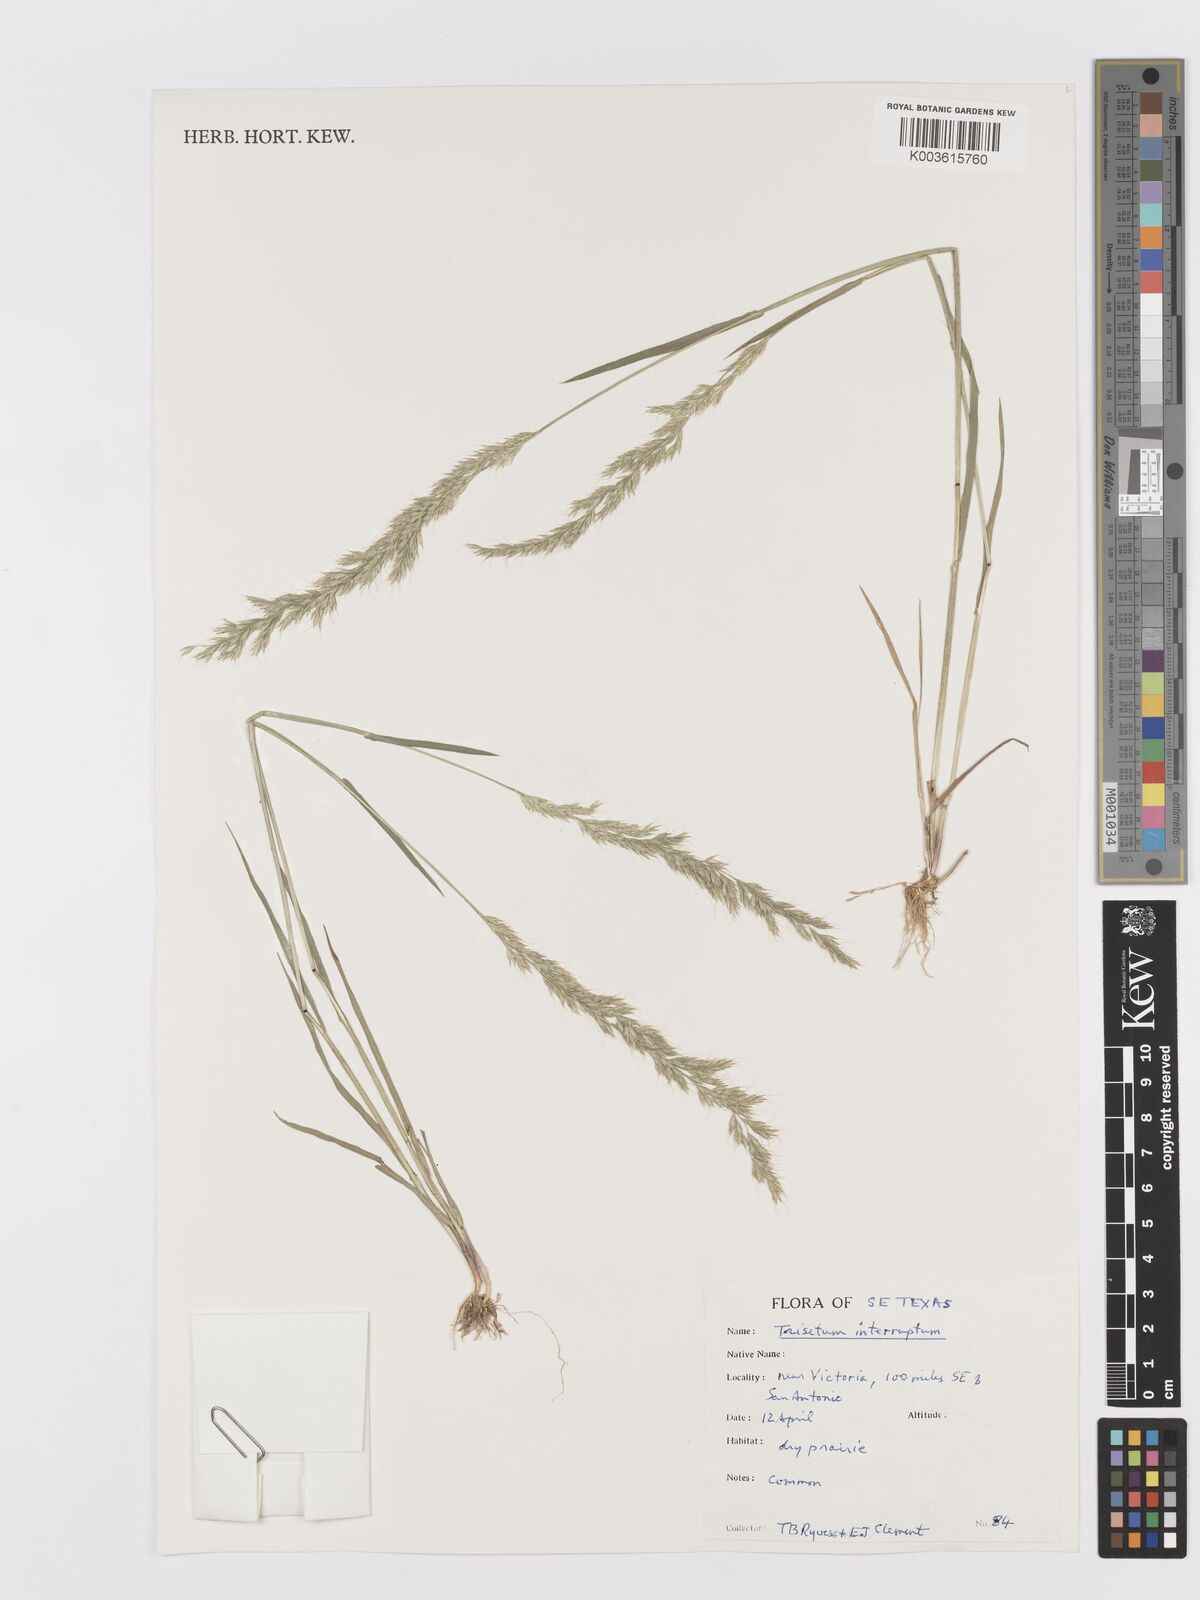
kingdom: Plantae
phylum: Tracheophyta
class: Liliopsida
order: Poales
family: Poaceae
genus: Trisetum
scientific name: Trisetum
